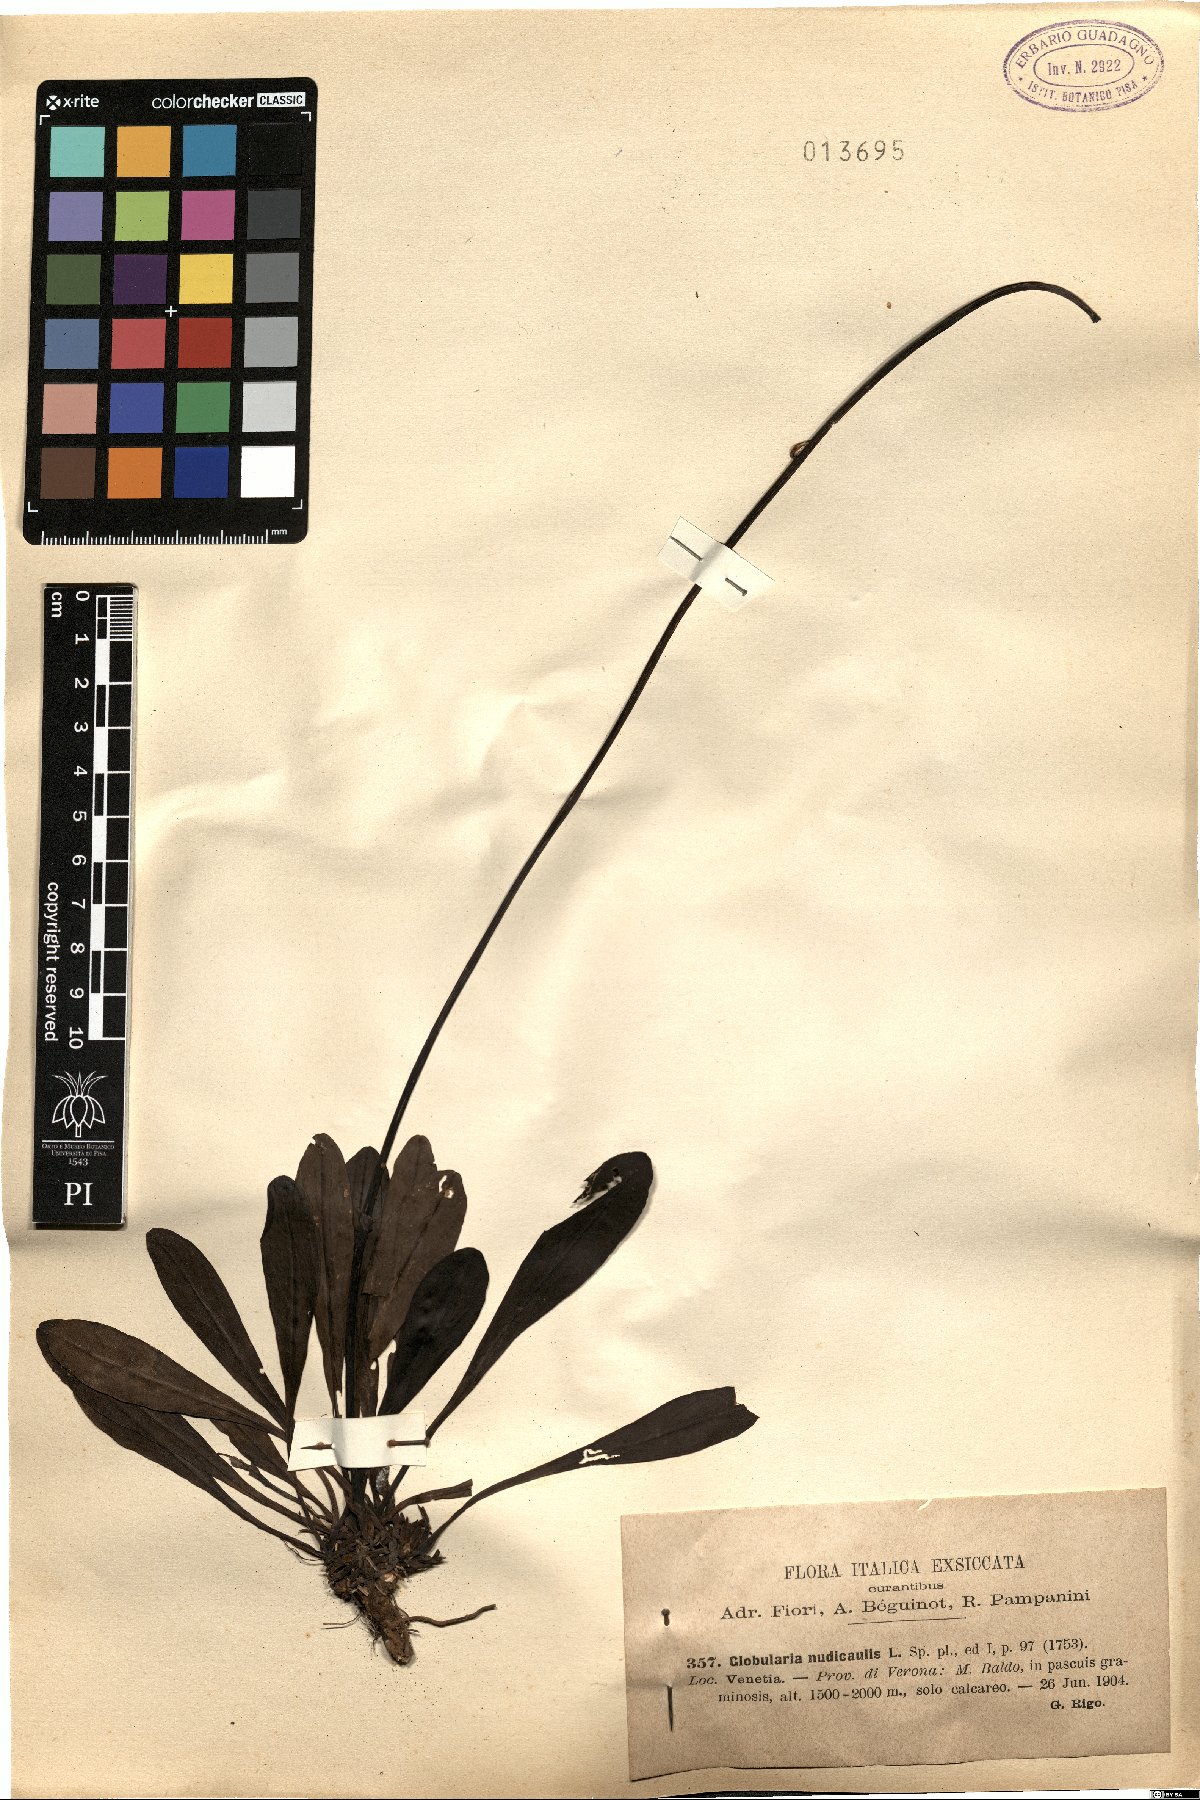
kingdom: Plantae
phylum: Tracheophyta
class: Magnoliopsida
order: Lamiales
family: Plantaginaceae
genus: Globularia
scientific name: Globularia nudicaulis
